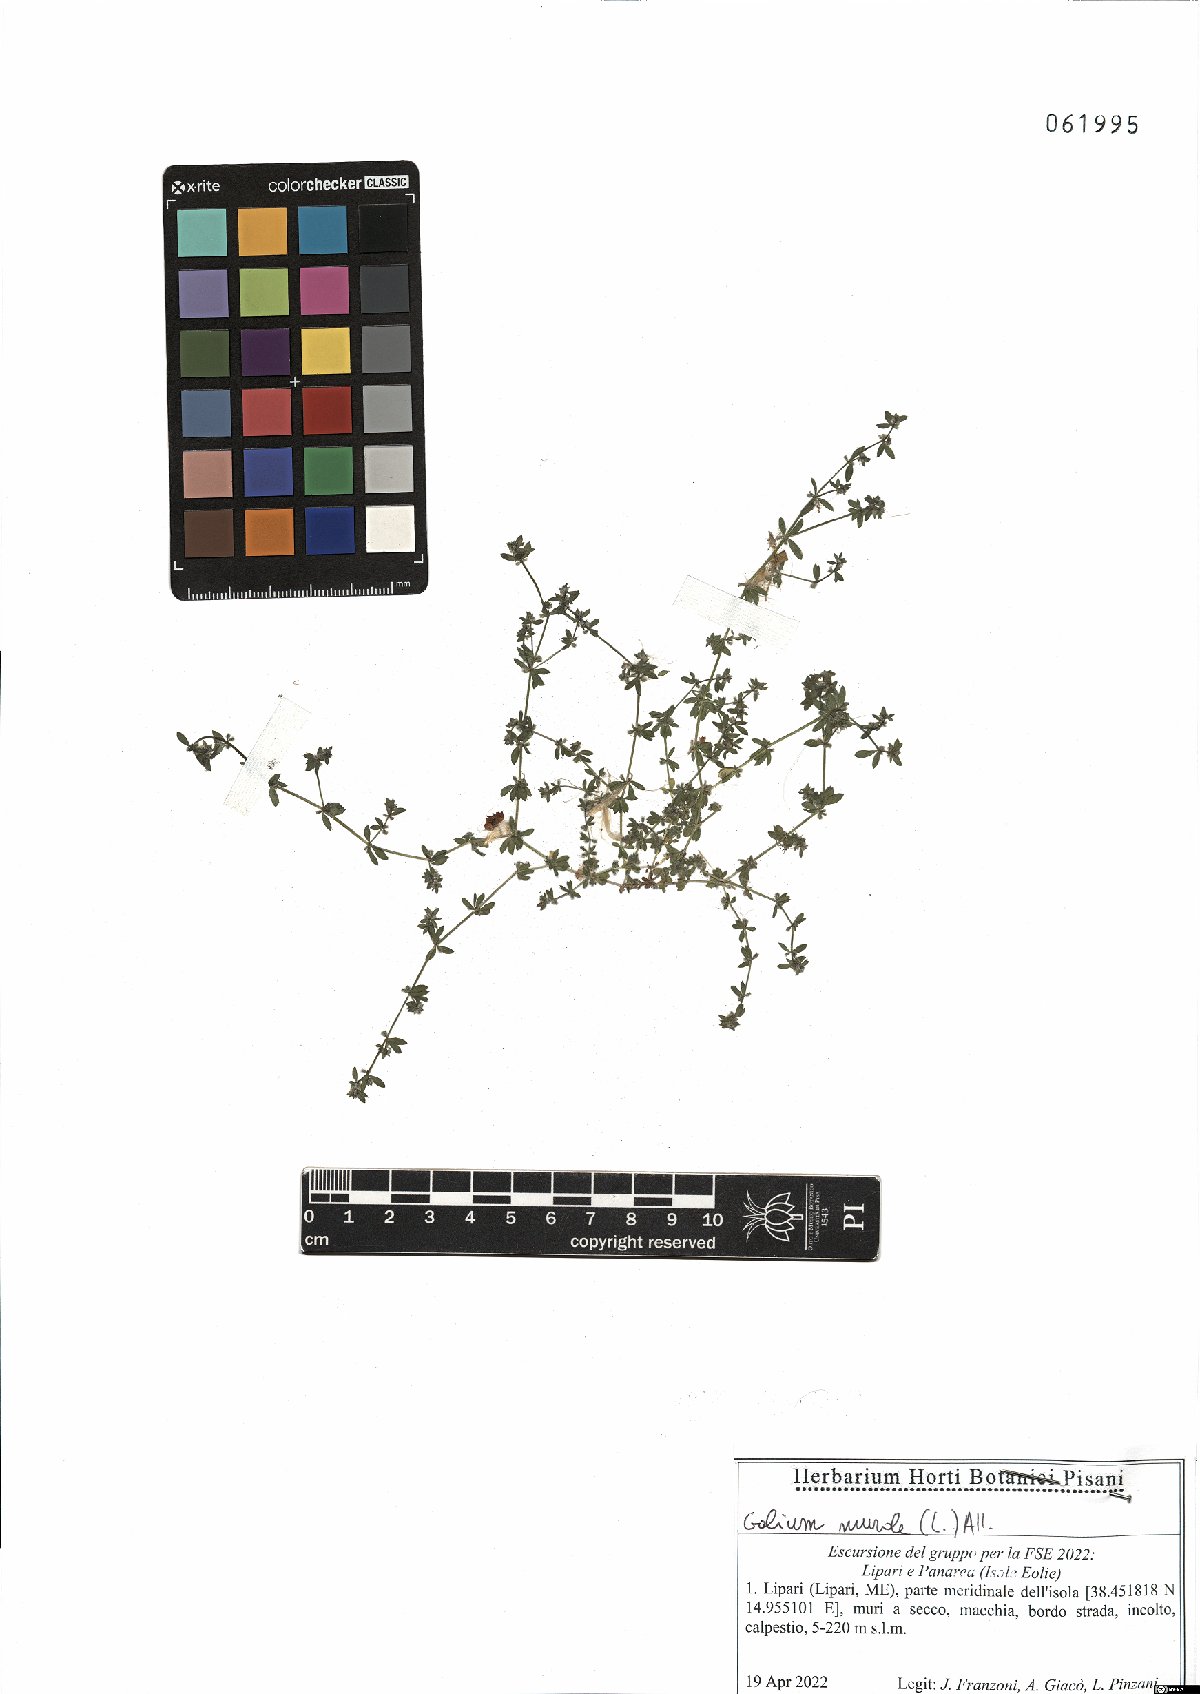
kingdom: Plantae
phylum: Tracheophyta
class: Magnoliopsida
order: Gentianales
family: Rubiaceae
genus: Galium
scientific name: Galium murale
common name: Yellow wall bedstraw
